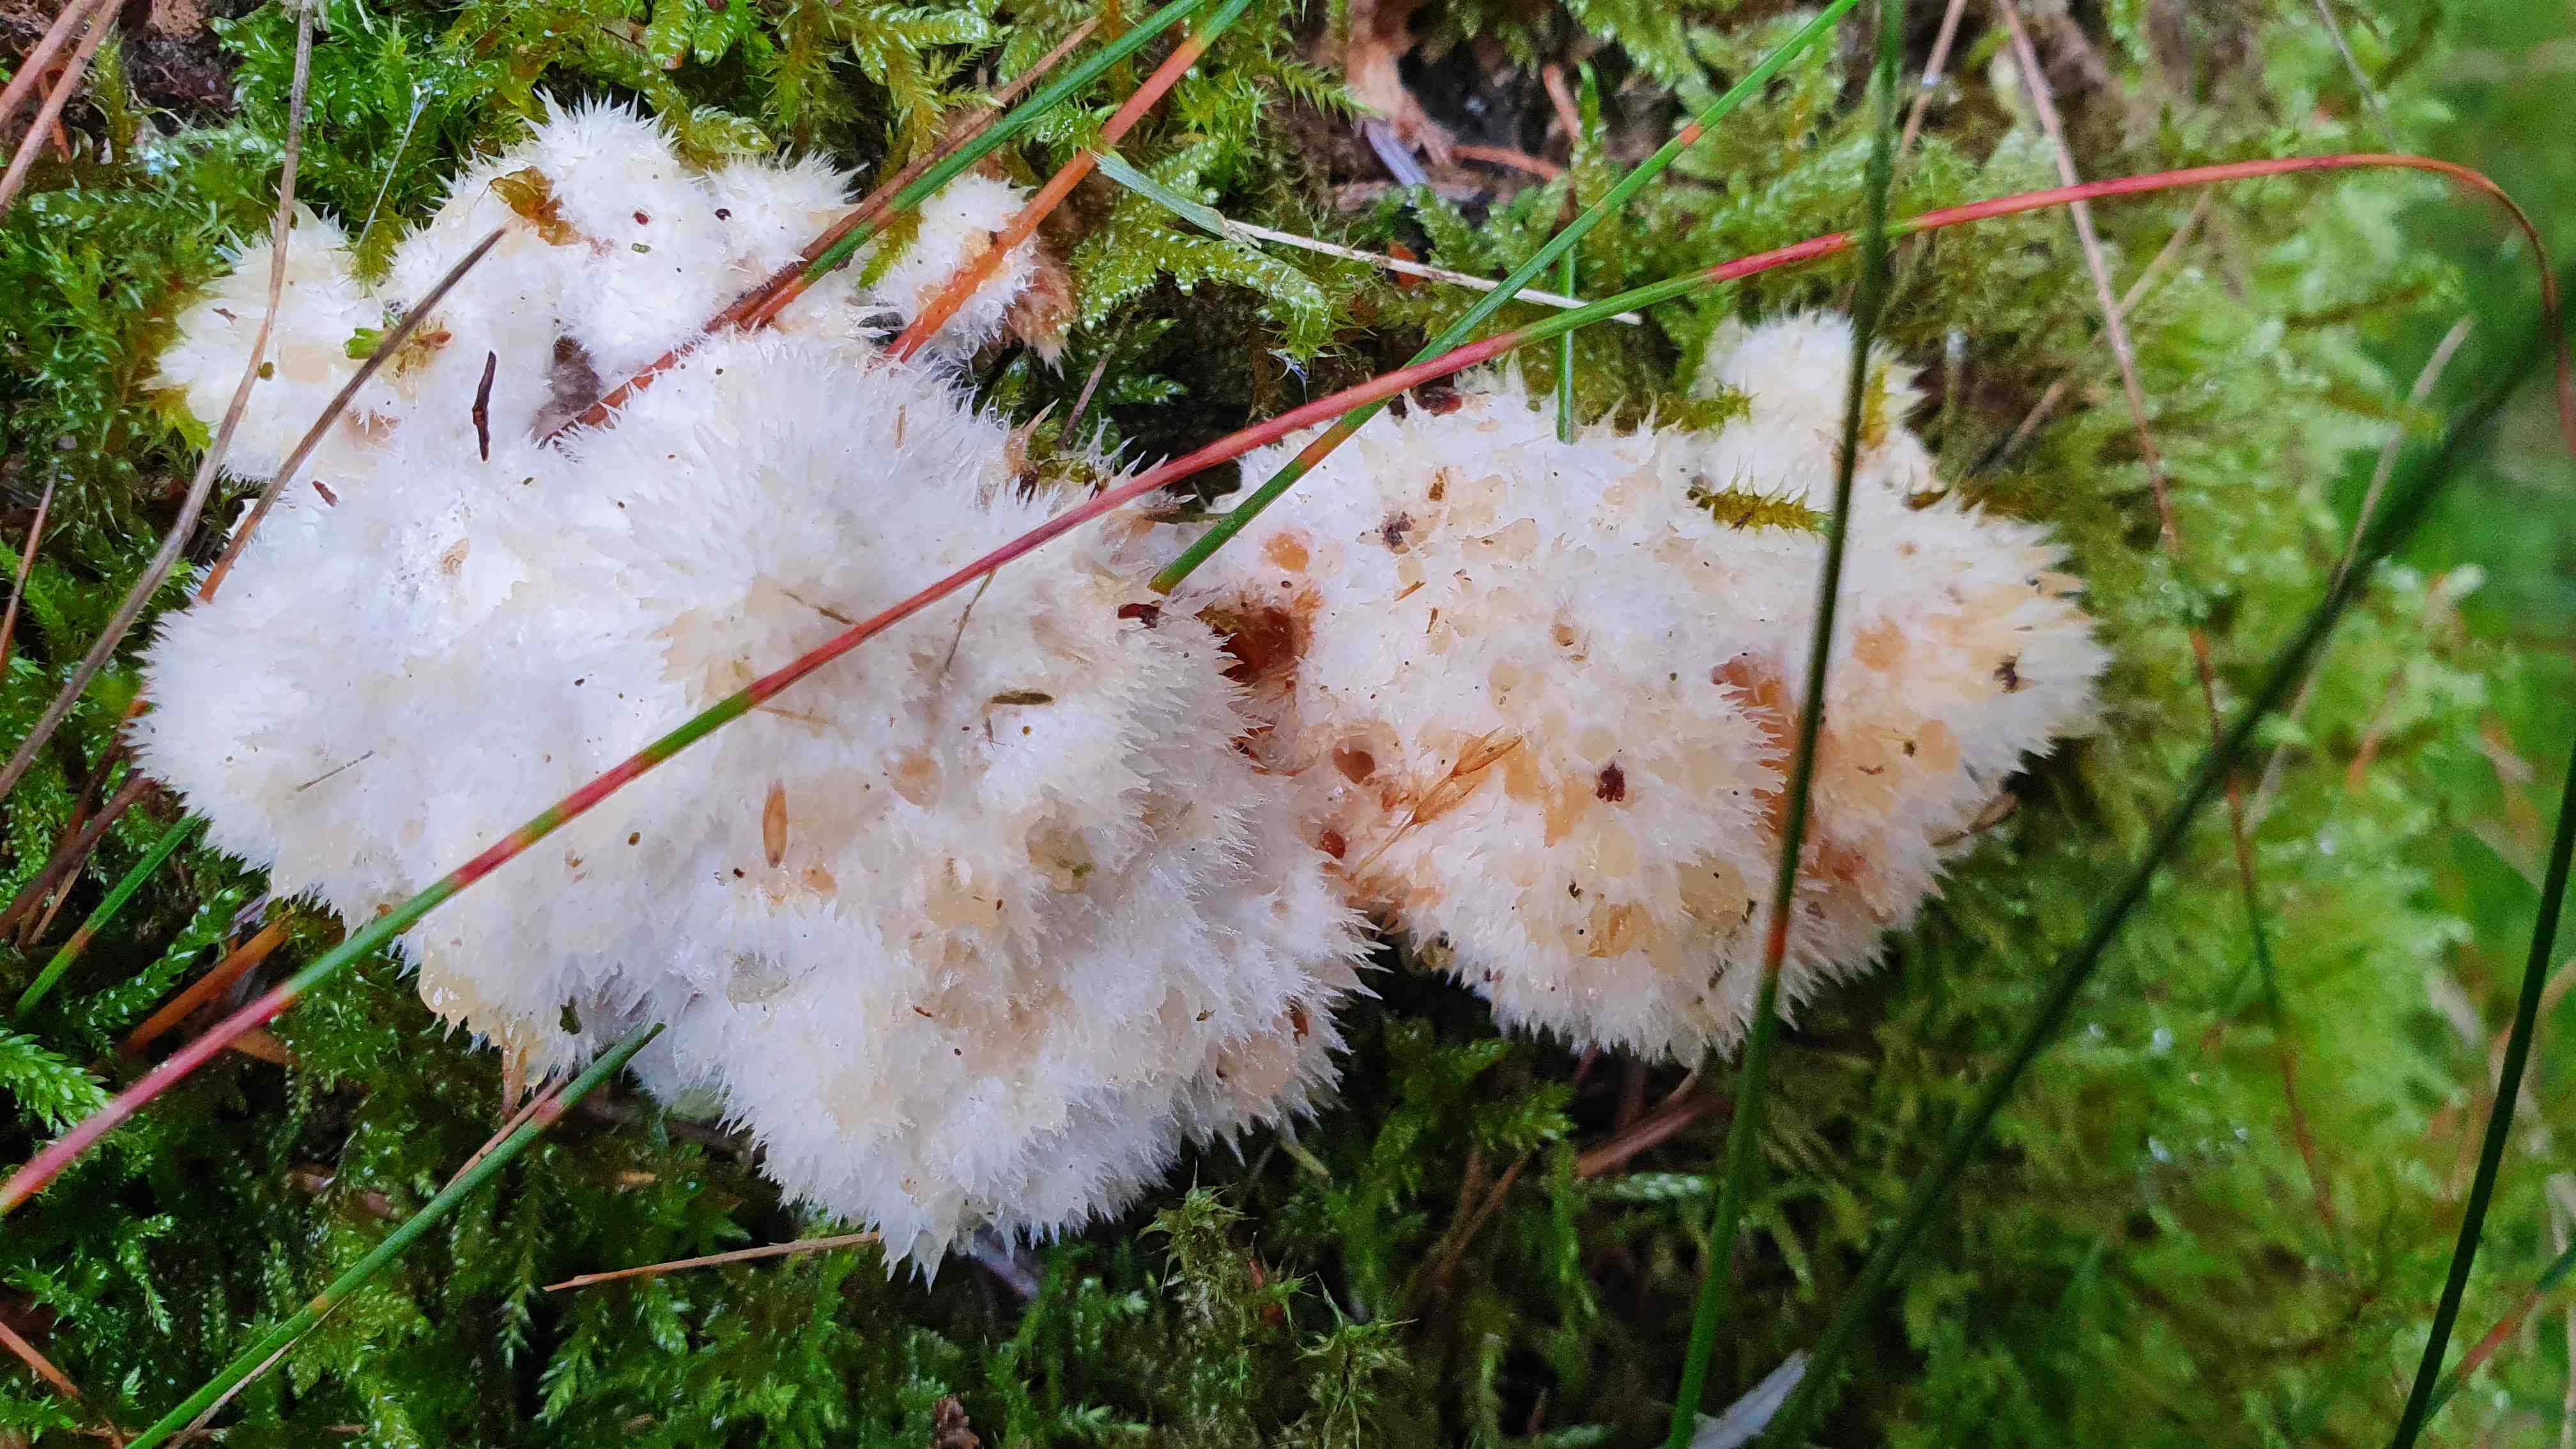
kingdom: Fungi
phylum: Basidiomycota
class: Agaricomycetes
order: Polyporales
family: Dacryobolaceae
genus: Postia
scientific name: Postia ptychogaster
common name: støvende kødporesvamp
